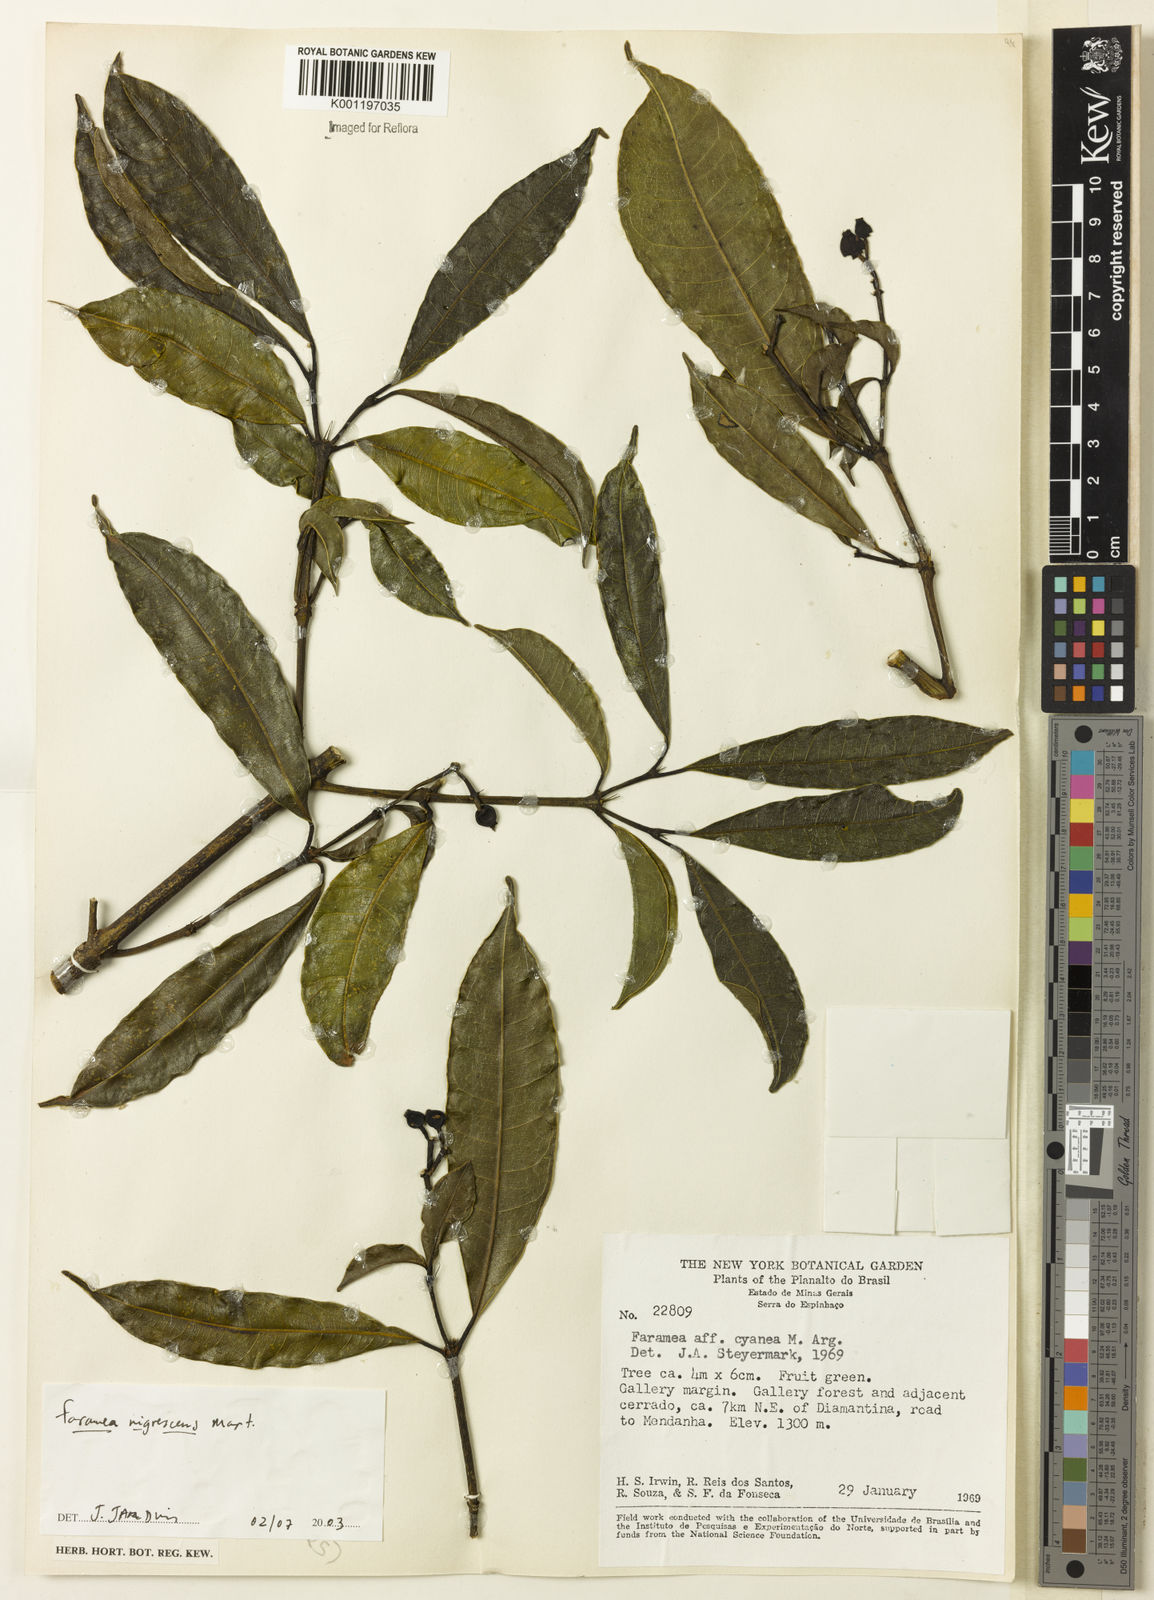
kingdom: Plantae
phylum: Tracheophyta
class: Magnoliopsida
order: Gentianales
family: Rubiaceae
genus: Faramea
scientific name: Faramea nigrescens
